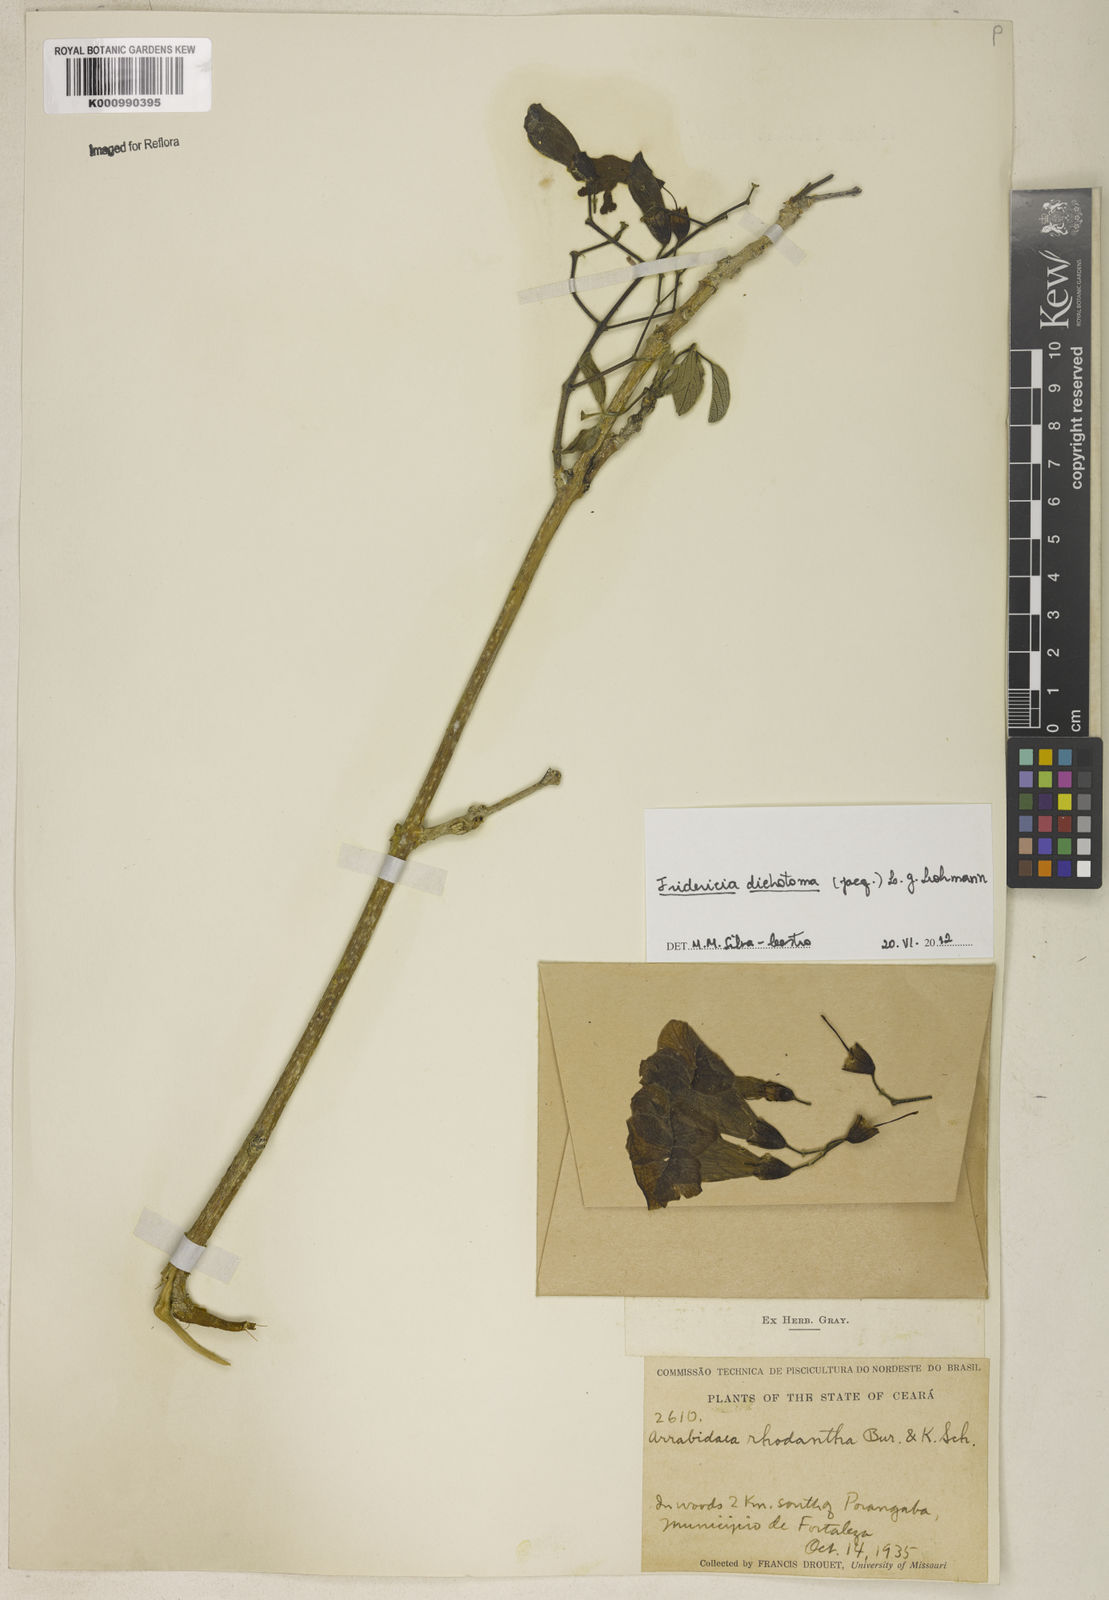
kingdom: Plantae
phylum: Tracheophyta
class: Magnoliopsida
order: Lamiales
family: Bignoniaceae
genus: Tanaecium
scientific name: Tanaecium dichotomum
